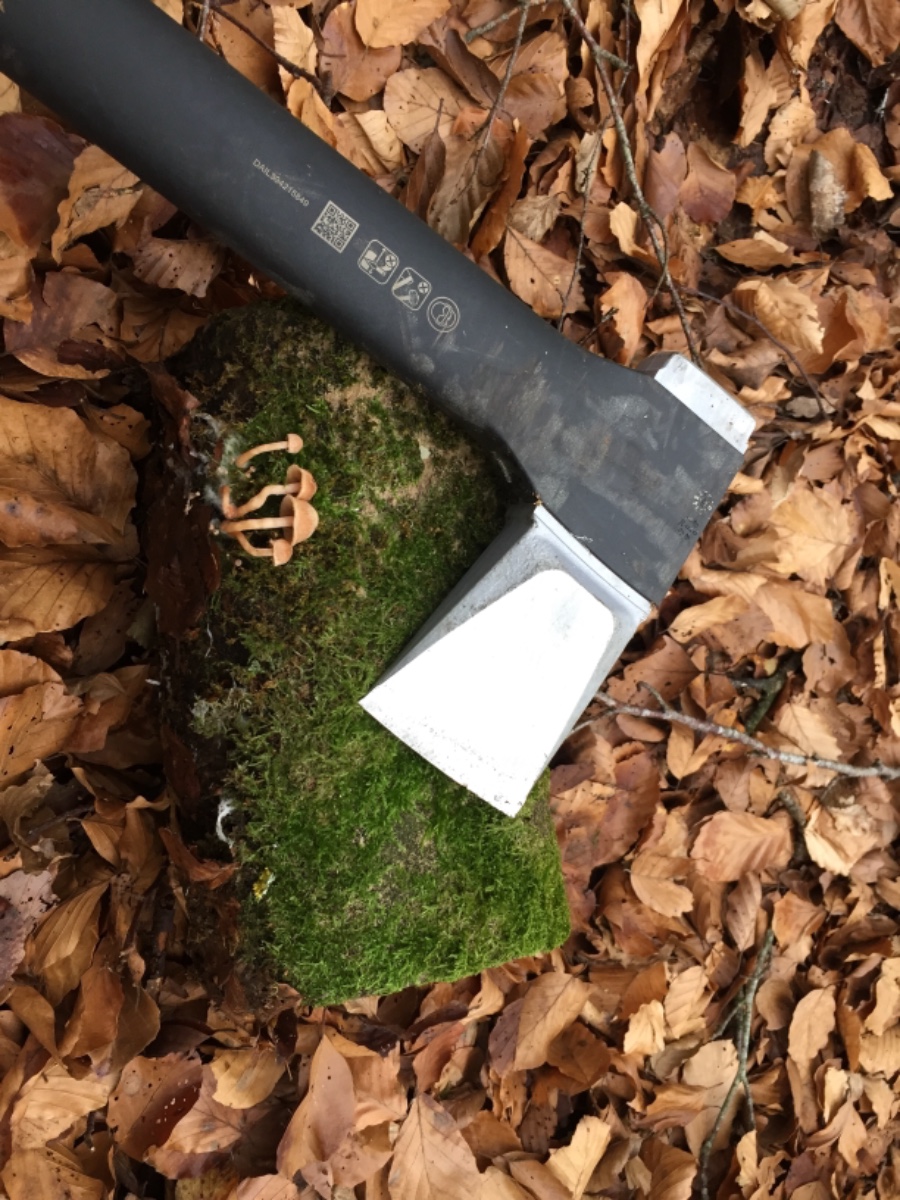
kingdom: Fungi
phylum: Basidiomycota
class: Agaricomycetes
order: Agaricales
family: Tubariaceae
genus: Tubaria
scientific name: Tubaria furfuracea
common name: kliddet fnughat
